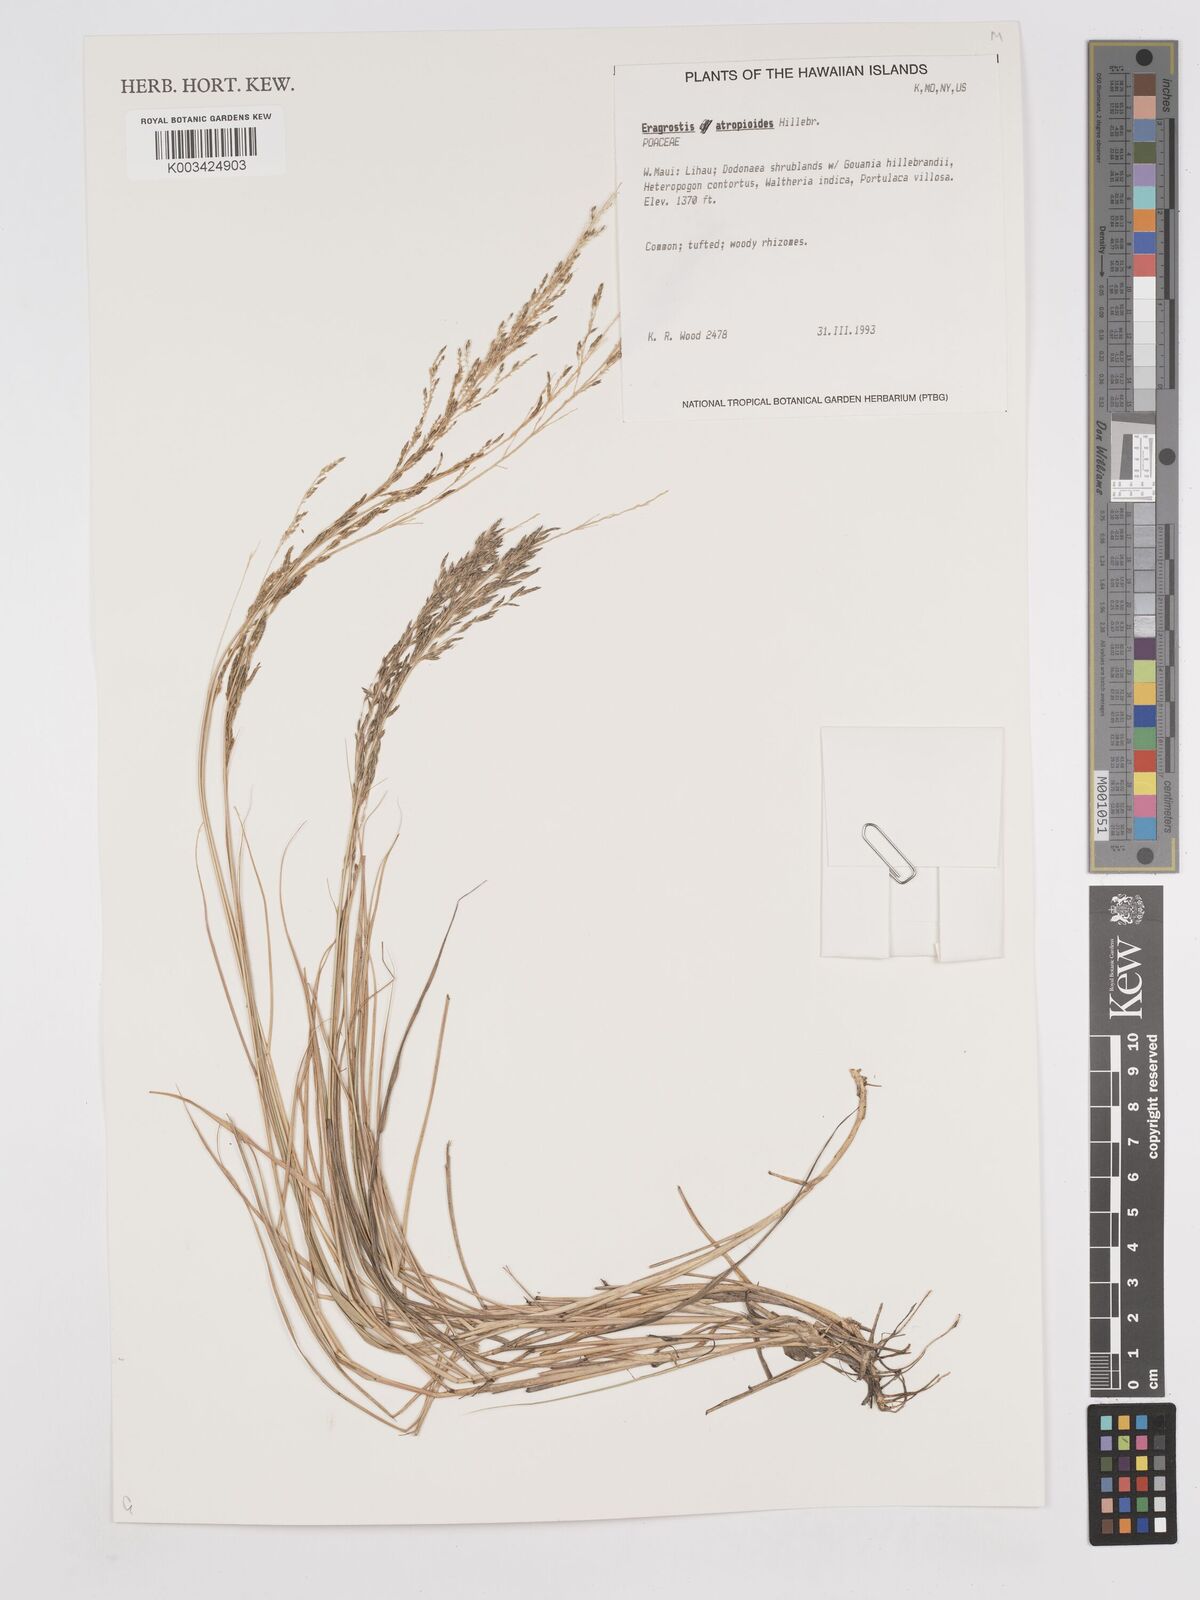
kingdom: Plantae
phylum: Tracheophyta
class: Liliopsida
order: Poales
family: Poaceae
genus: Eragrostis
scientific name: Eragrostis atropioides
